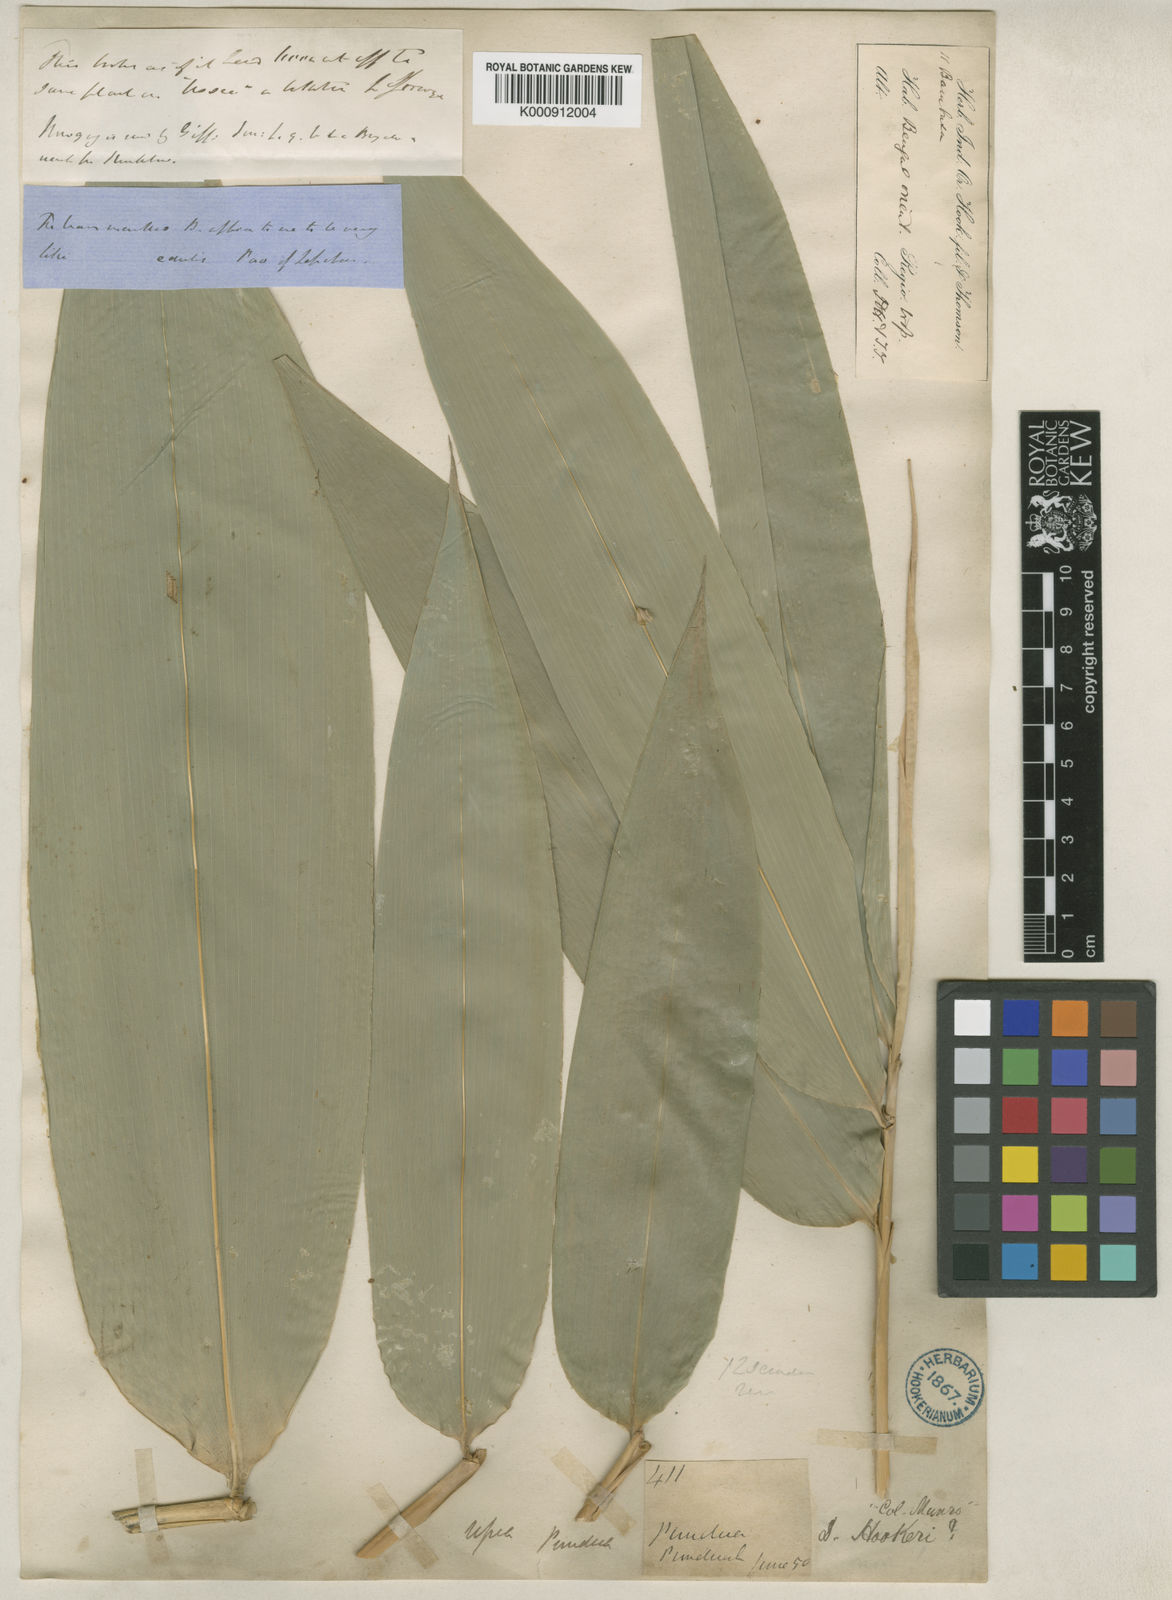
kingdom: Plantae
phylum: Tracheophyta
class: Liliopsida
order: Poales
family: Poaceae
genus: Dendrocalamus
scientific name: Dendrocalamus hookeri
